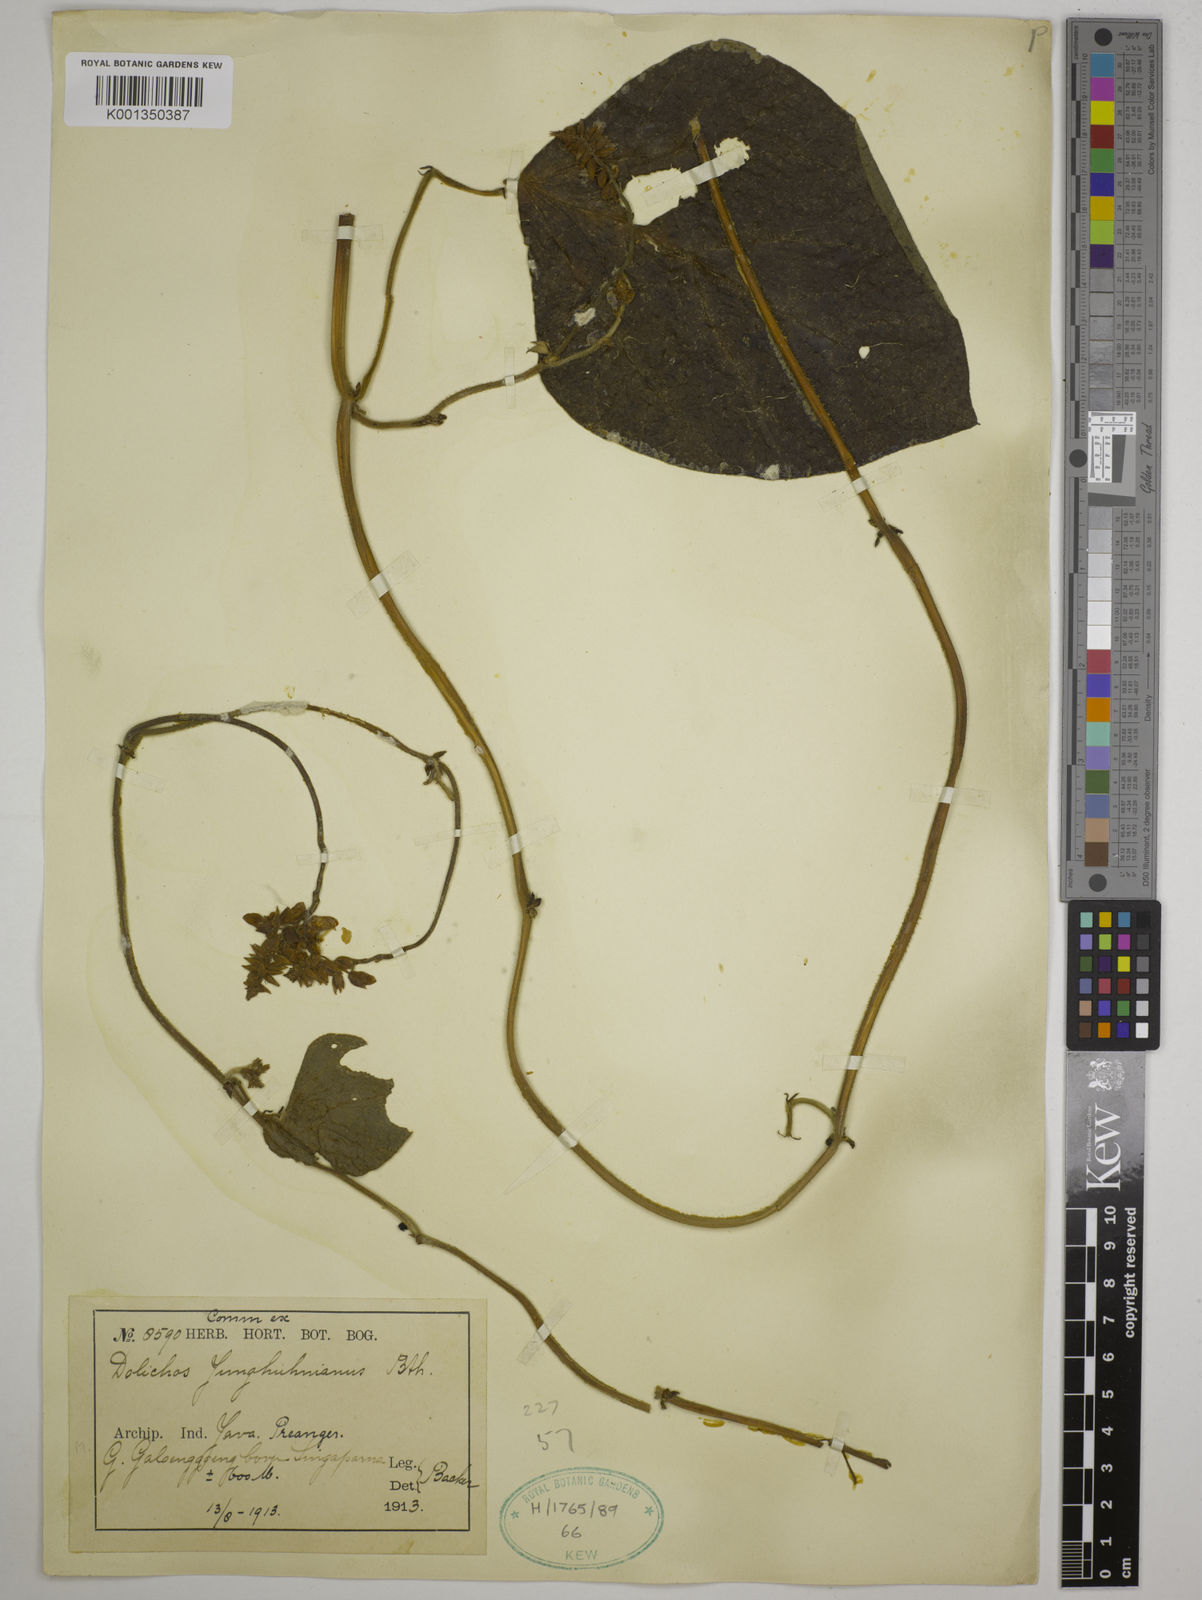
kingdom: Plantae
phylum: Tracheophyta
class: Magnoliopsida
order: Fabales
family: Fabaceae
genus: Dolichos
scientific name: Dolichos junghuhnianus
